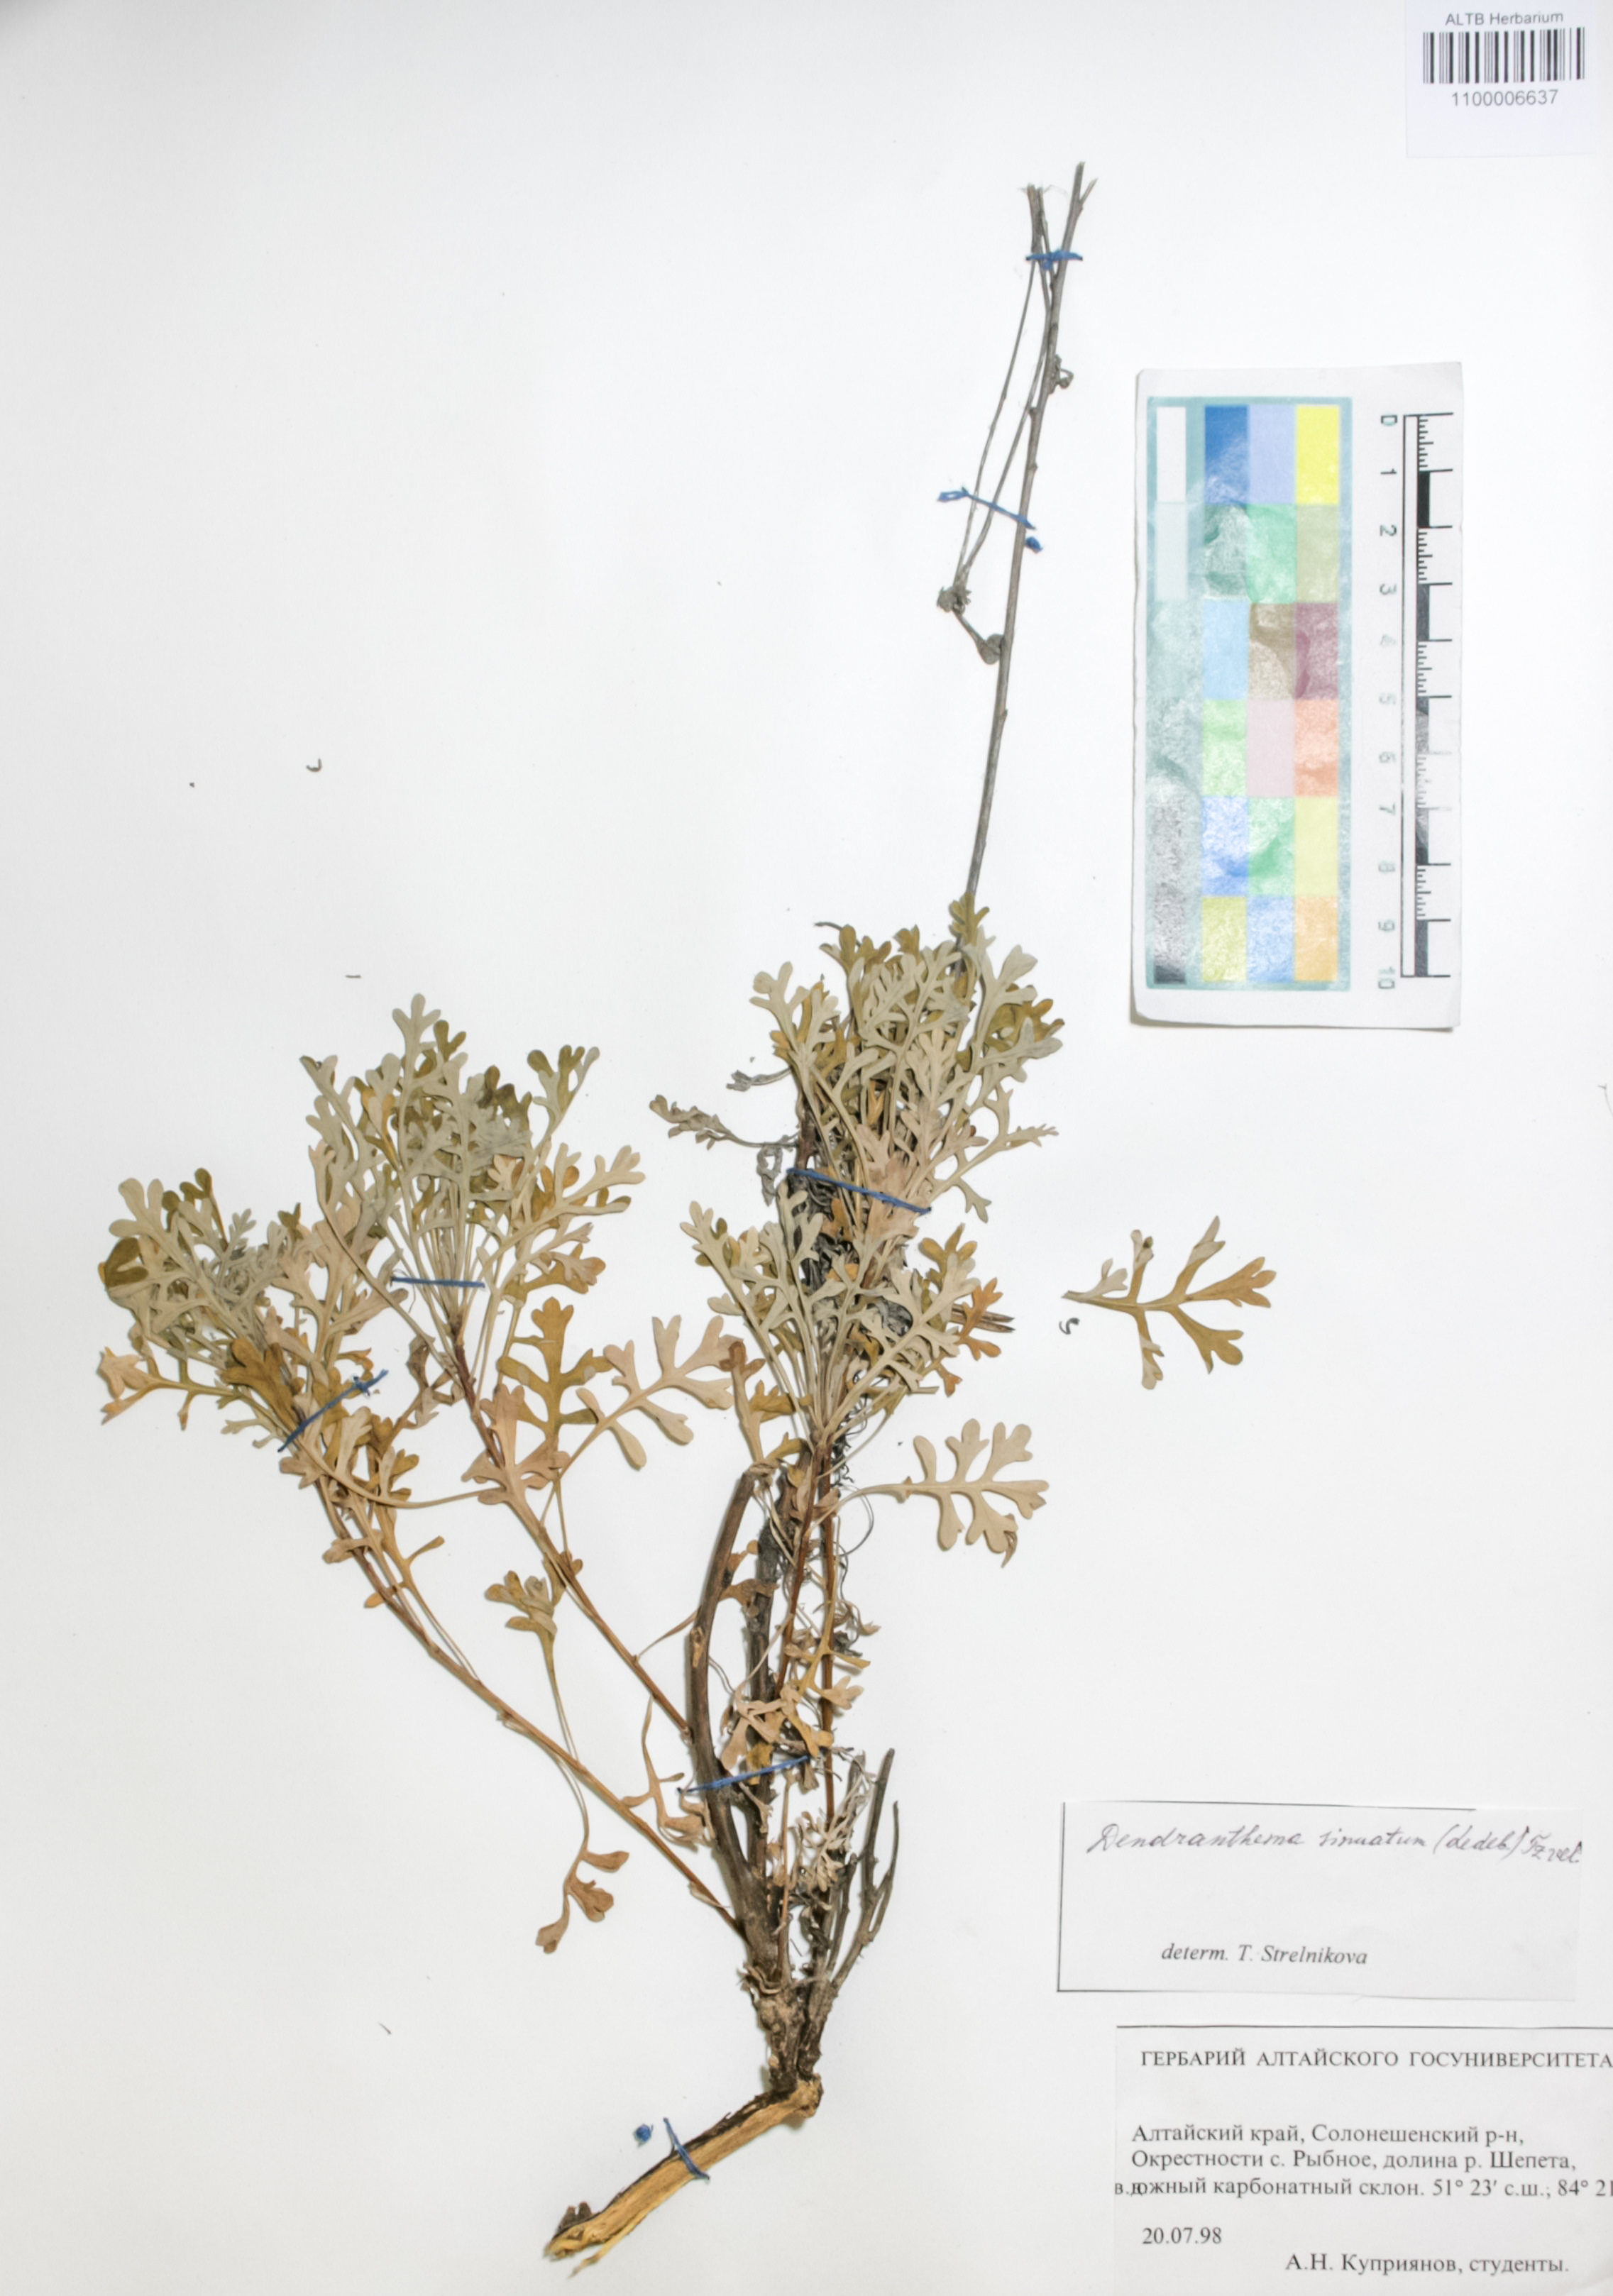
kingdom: Plantae
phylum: Tracheophyta
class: Magnoliopsida
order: Asterales
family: Asteraceae
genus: Chrysanthemum
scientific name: Chrysanthemum sinuatum
